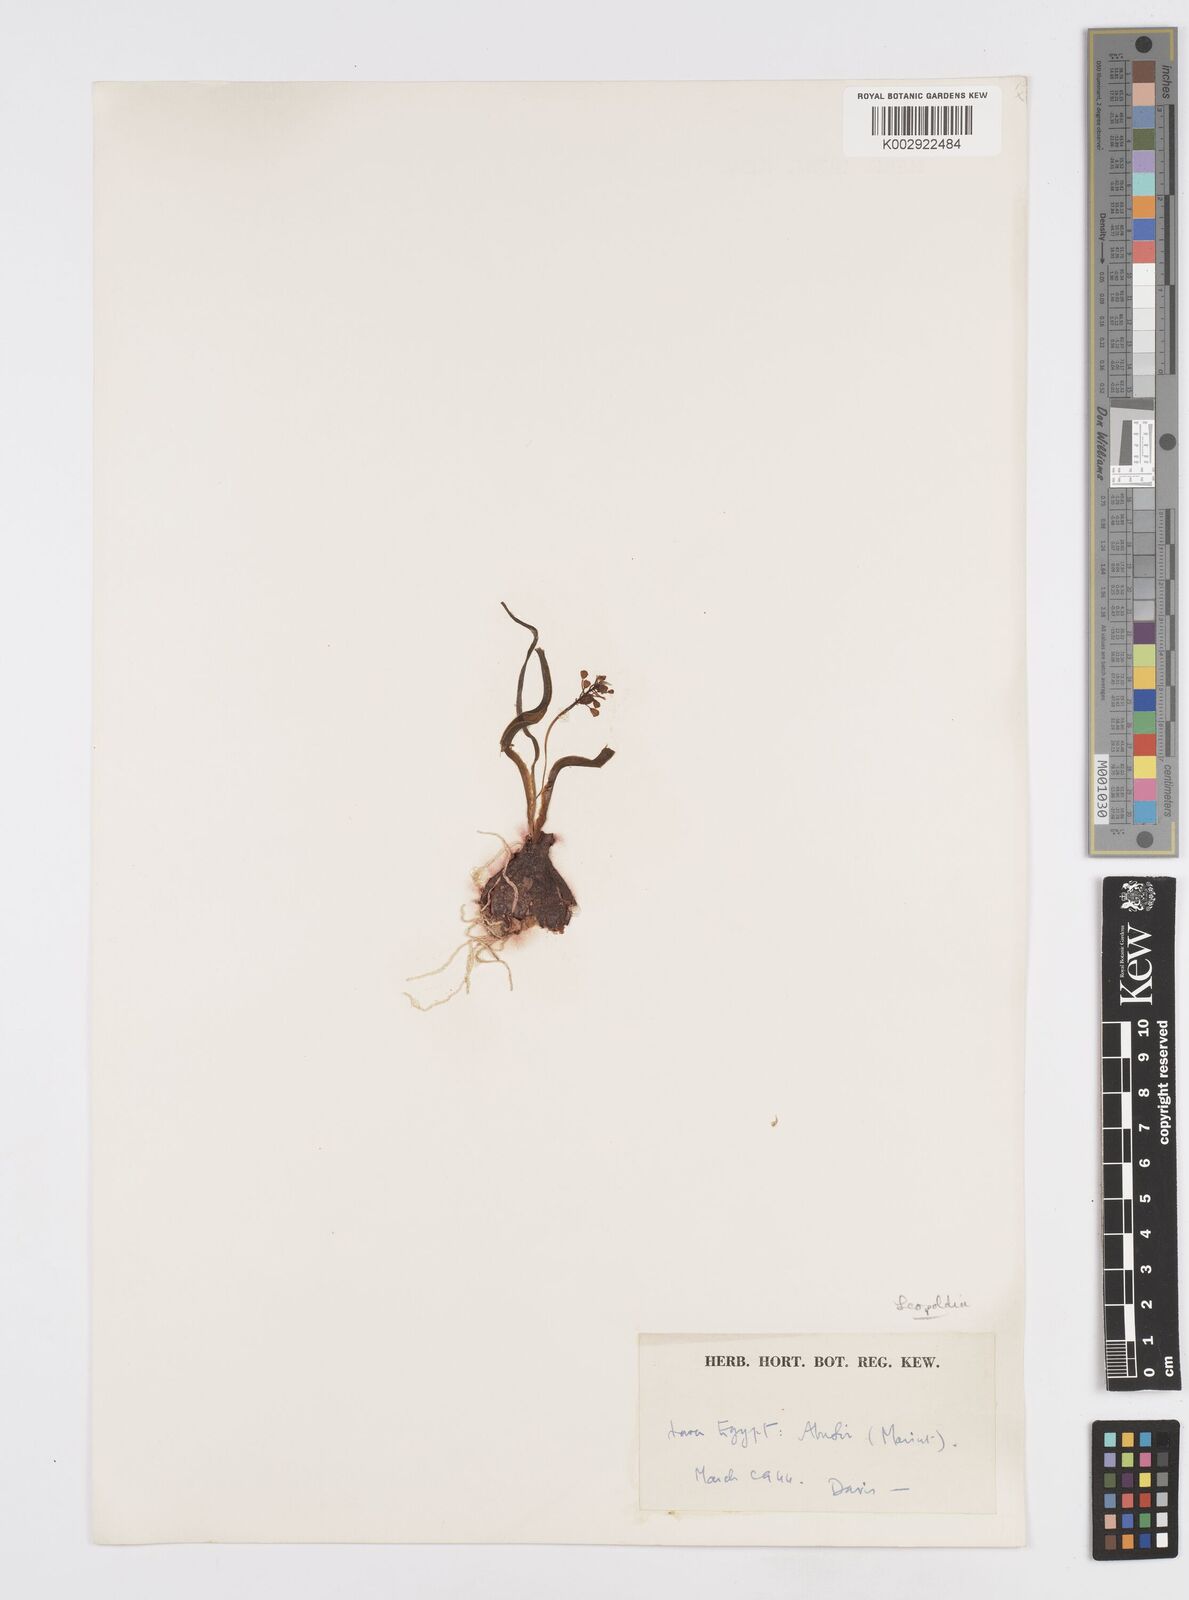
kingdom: Animalia
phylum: Mollusca
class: Cephalopoda
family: Neocomitidae
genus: Leopoldia
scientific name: Leopoldia
